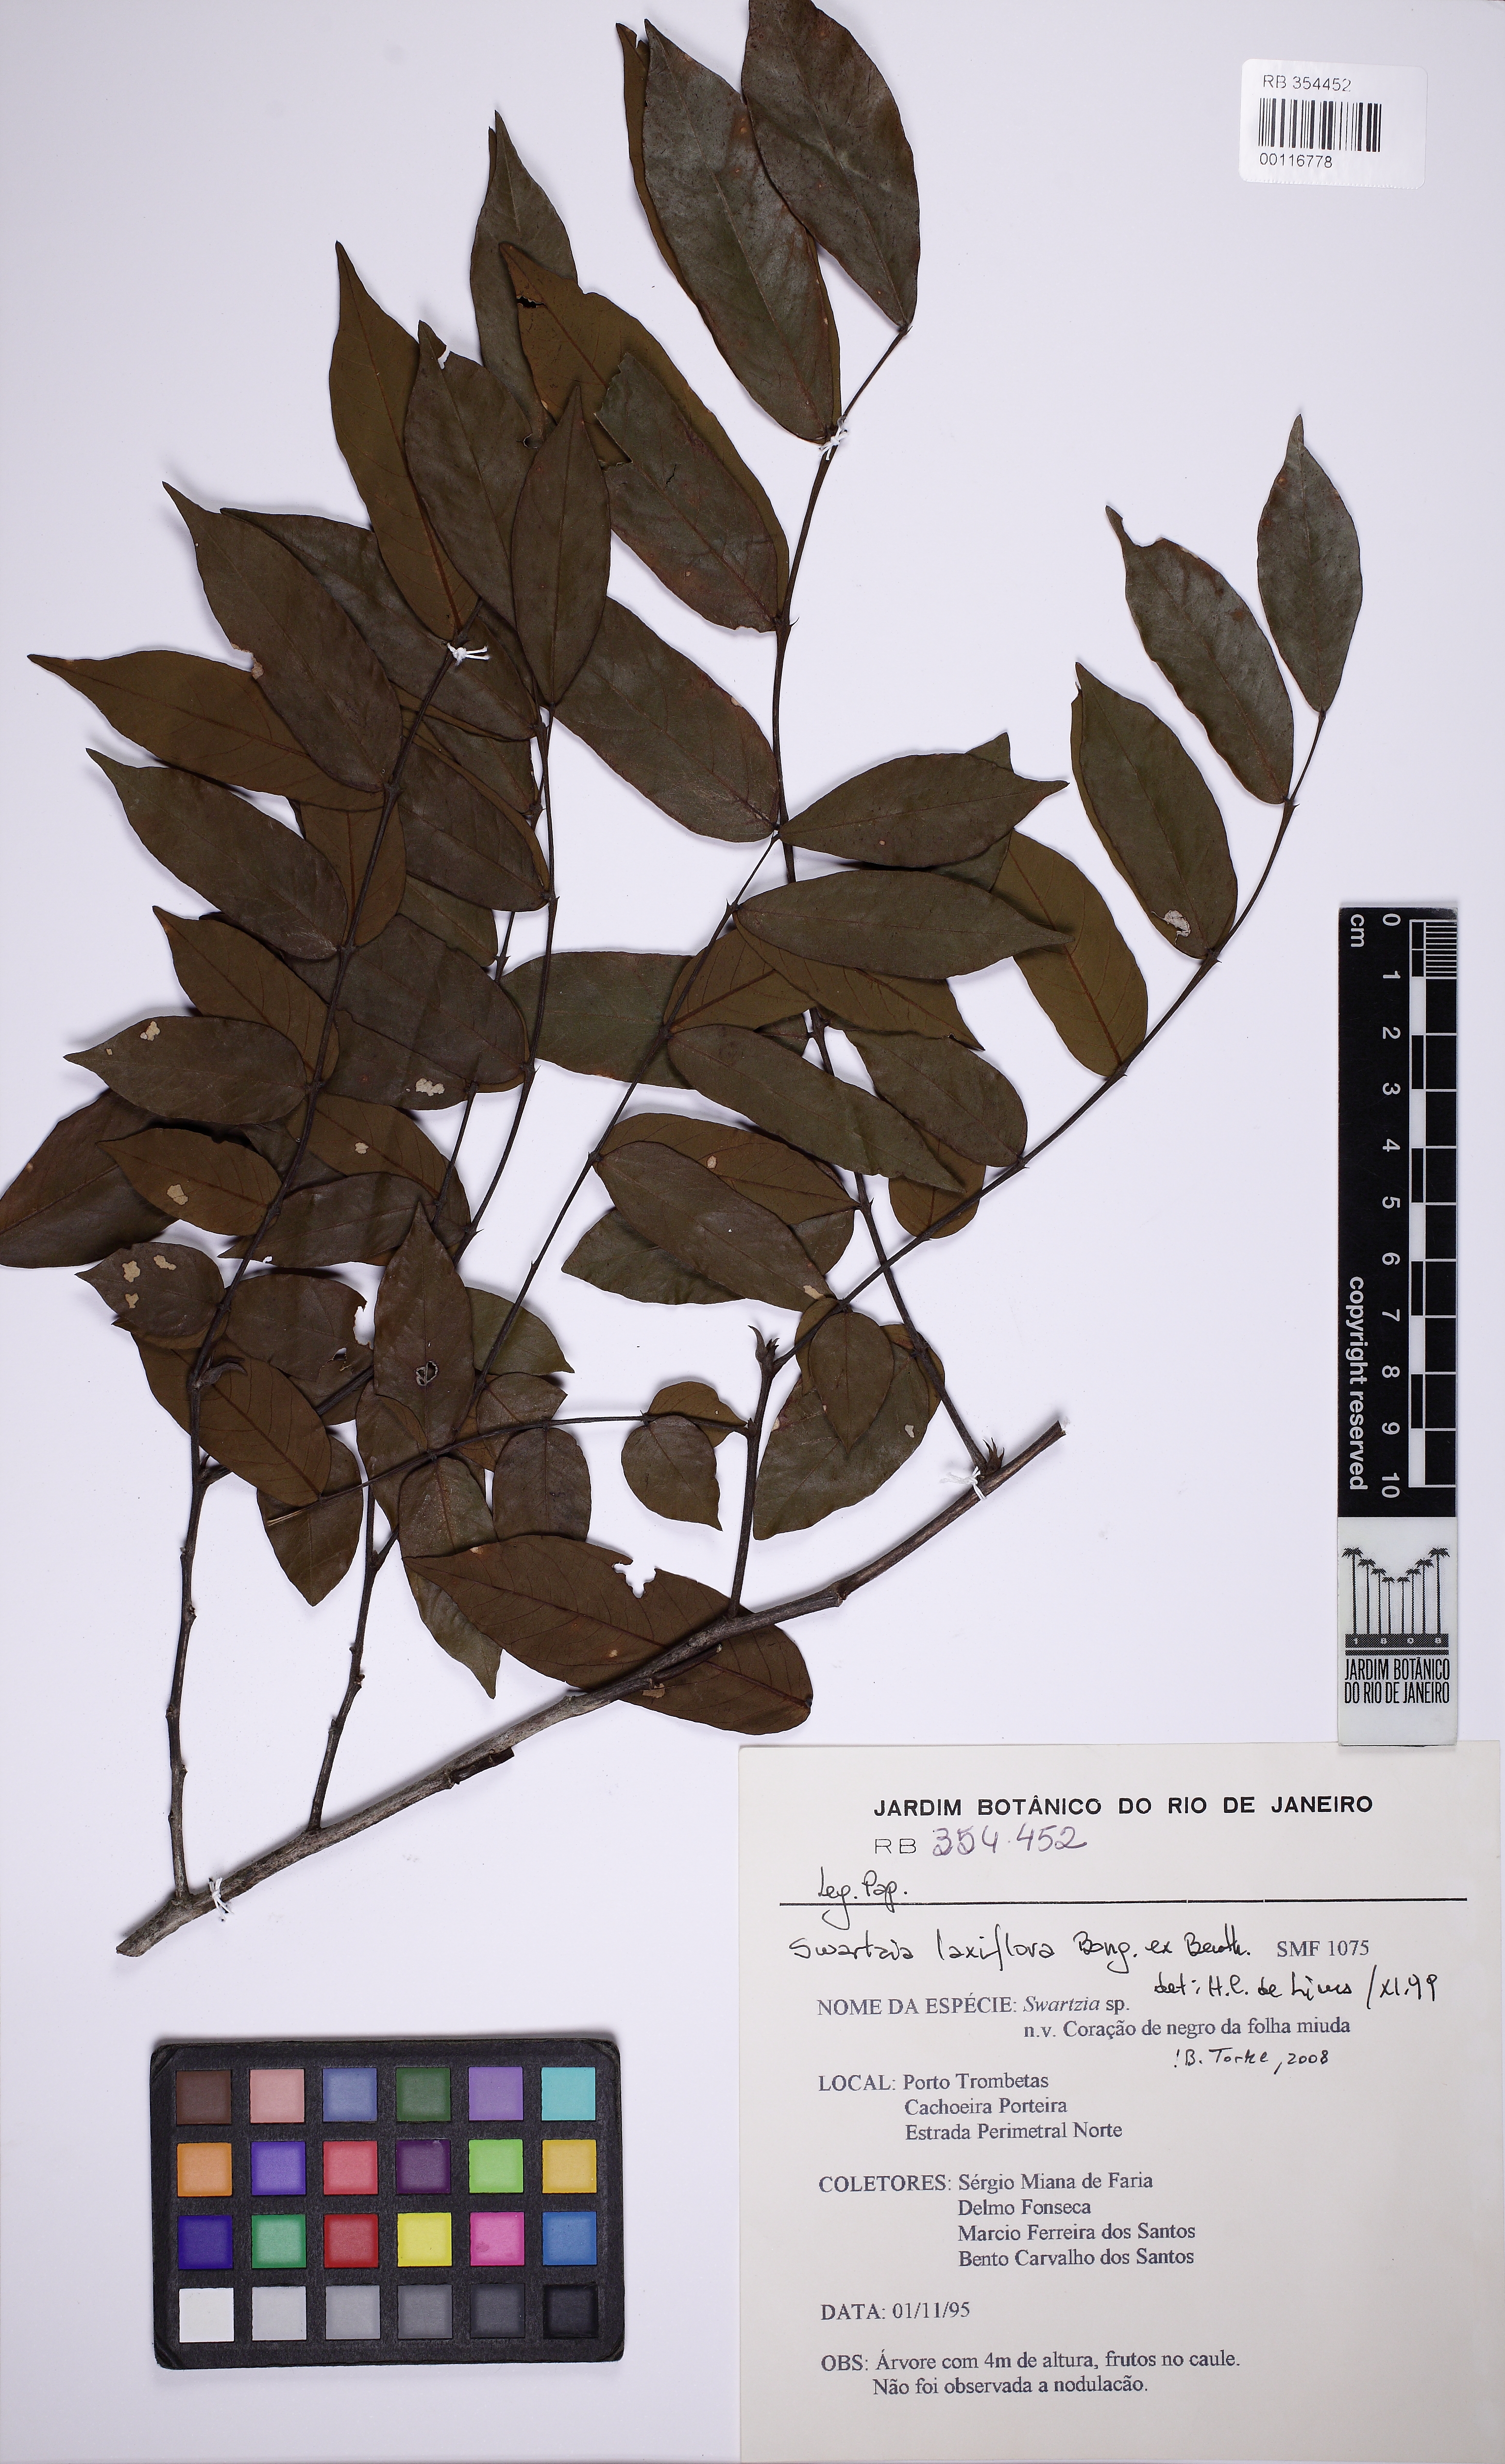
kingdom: Plantae
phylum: Tracheophyta
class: Magnoliopsida
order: Fabales
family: Fabaceae
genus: Swartzia
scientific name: Swartzia laxiflora
